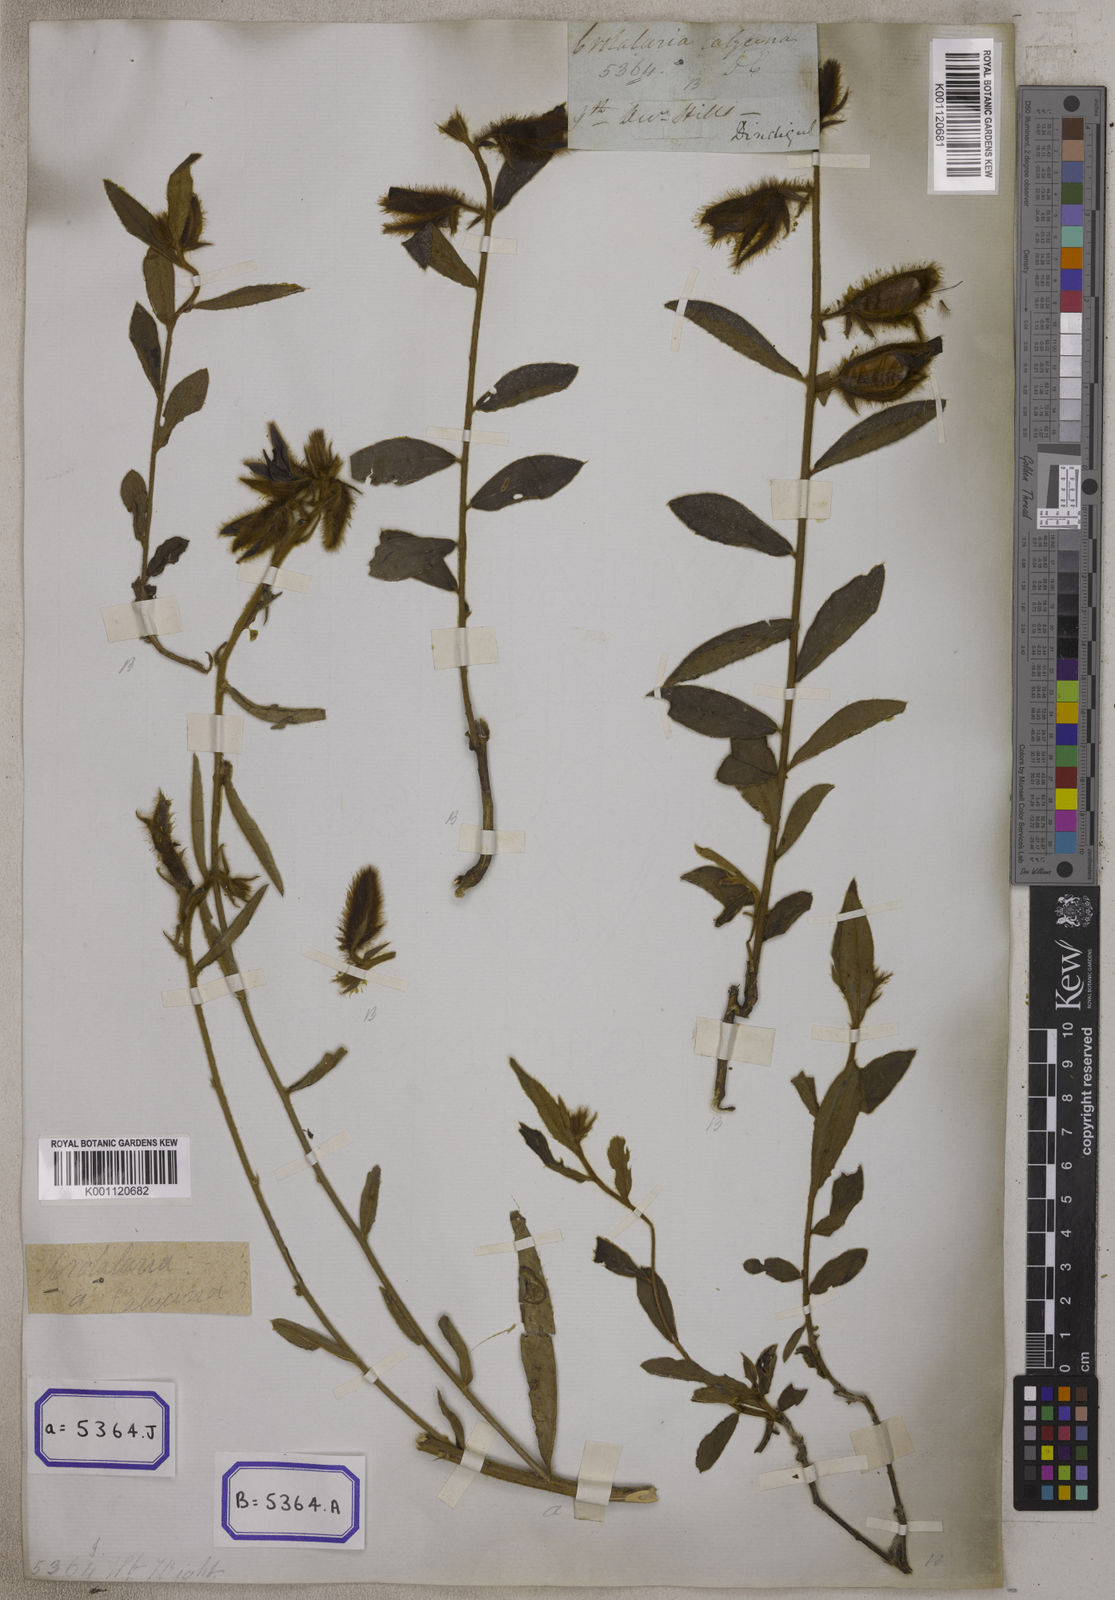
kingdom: Plantae
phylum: Tracheophyta
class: Magnoliopsida
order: Fabales
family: Fabaceae
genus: Crotalaria
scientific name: Crotalaria calycina
